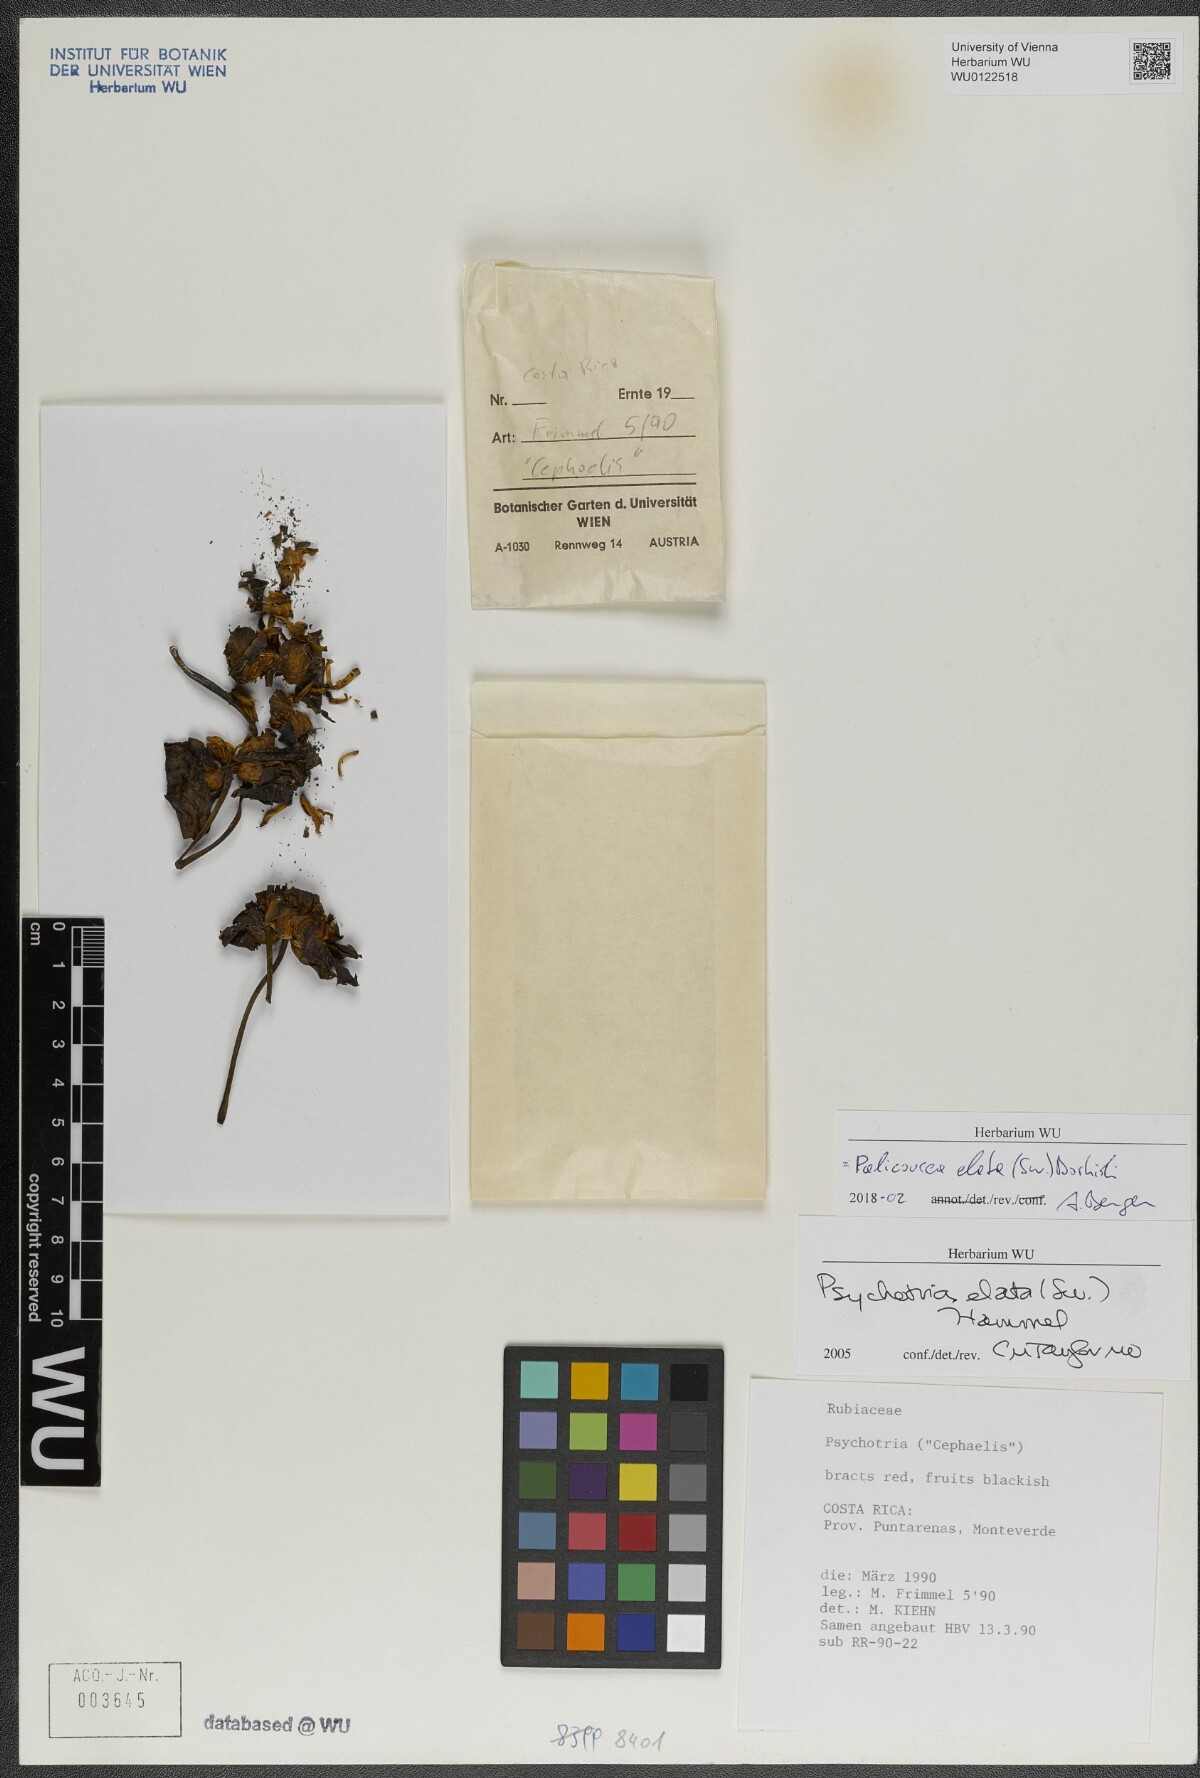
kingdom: Plantae
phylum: Tracheophyta
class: Magnoliopsida
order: Gentianales
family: Rubiaceae
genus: Palicourea
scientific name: Palicourea elata
